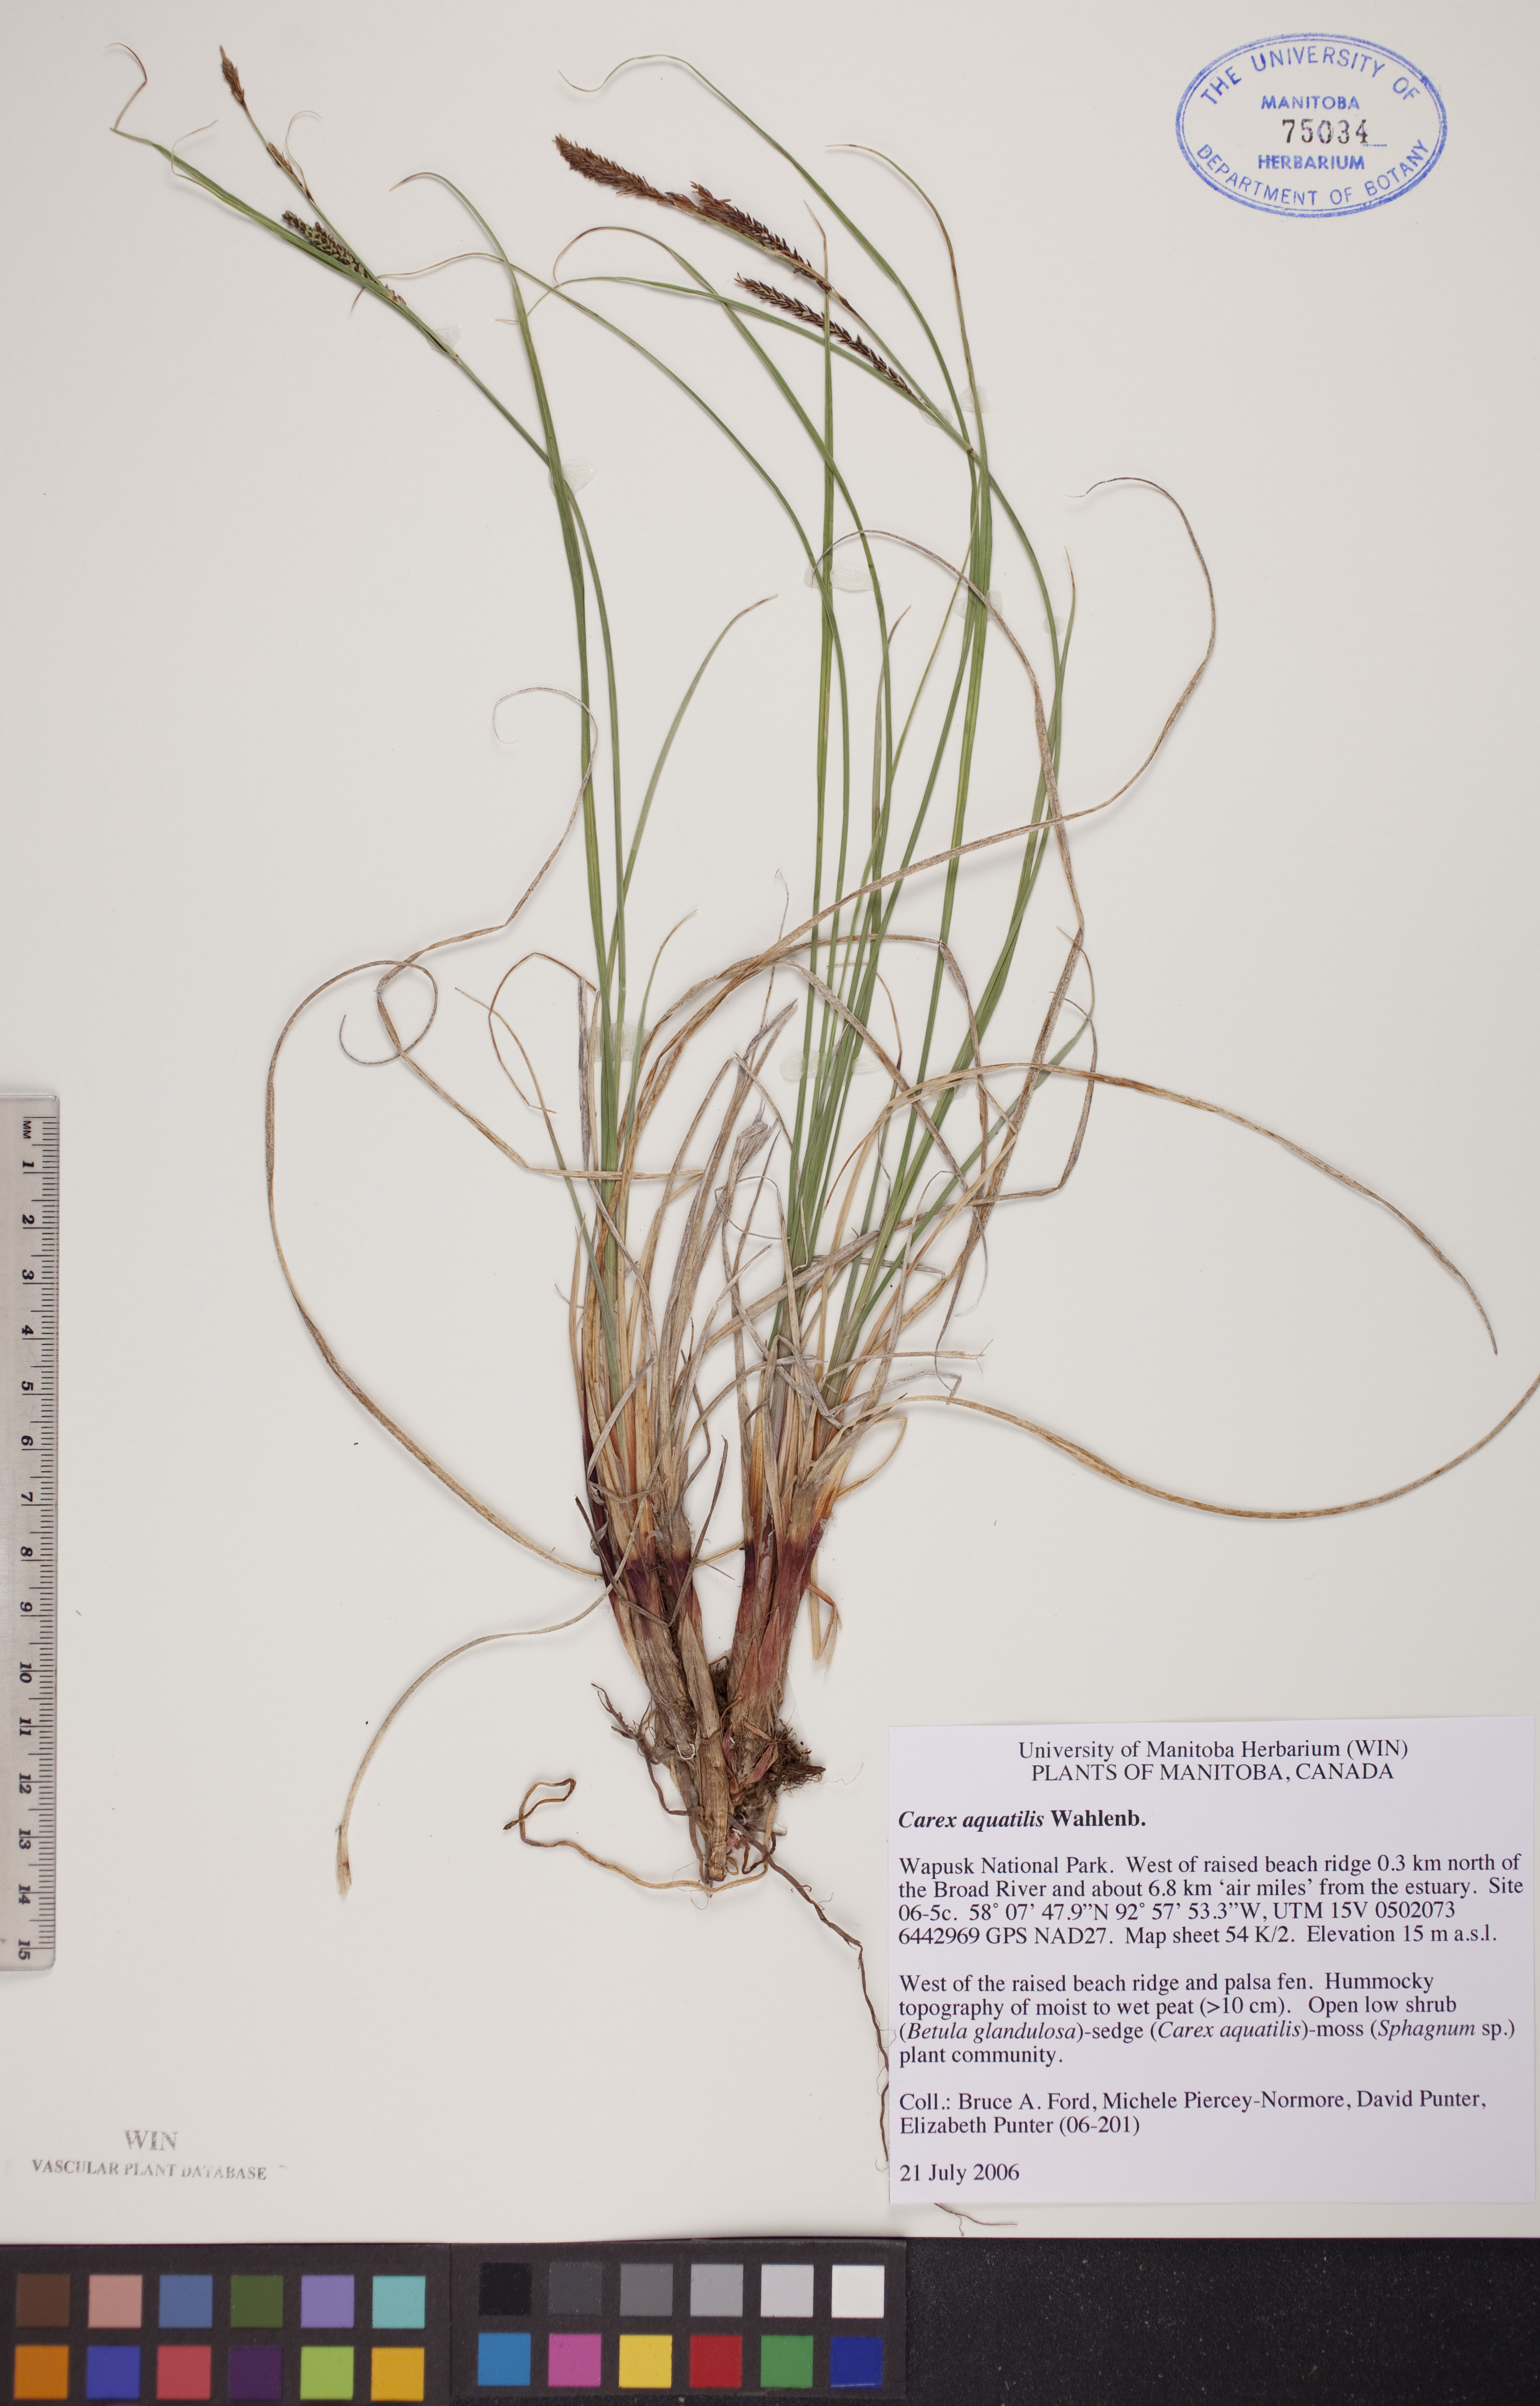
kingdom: Plantae
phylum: Tracheophyta
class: Liliopsida
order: Poales
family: Cyperaceae
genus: Carex
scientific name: Carex aquatilis
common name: Water sedge
